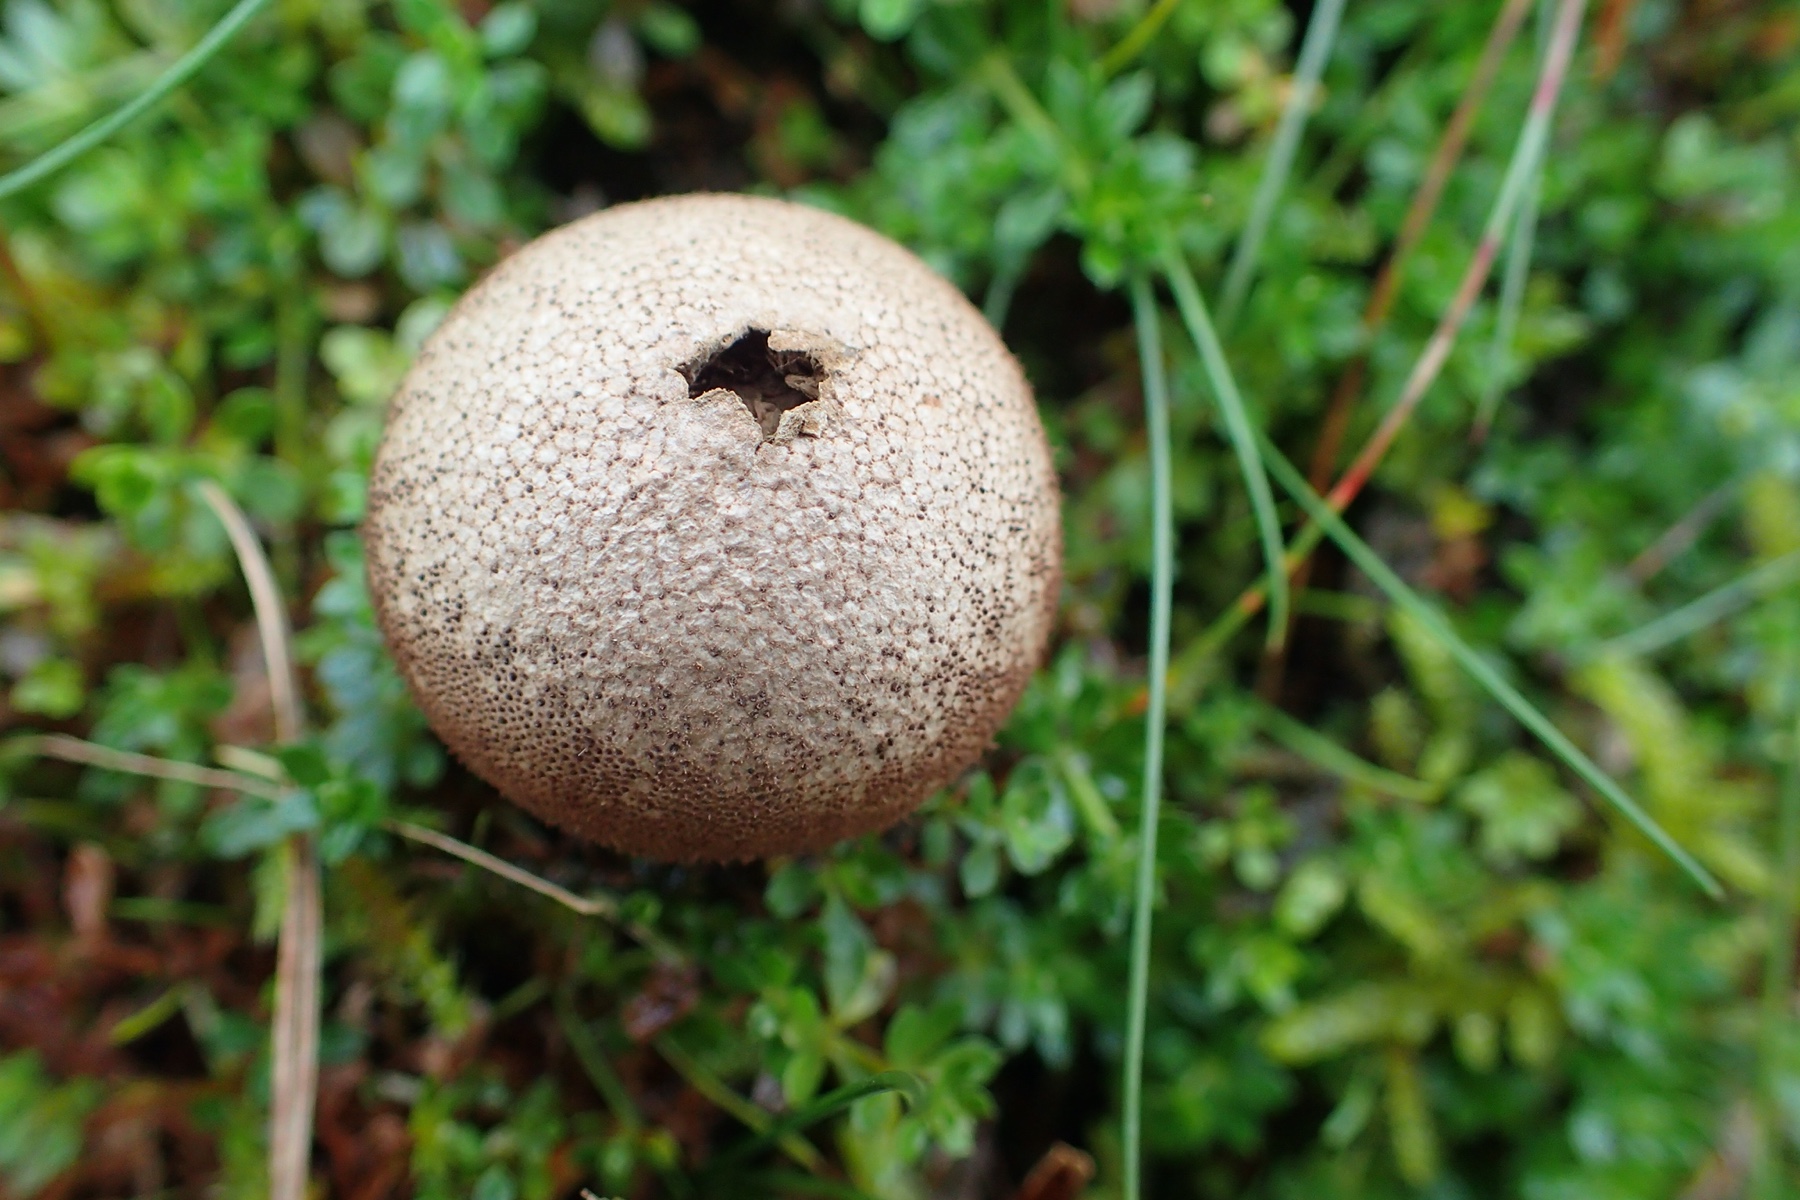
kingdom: Fungi
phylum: Basidiomycota
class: Agaricomycetes
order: Agaricales
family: Lycoperdaceae
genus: Lycoperdon
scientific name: Lycoperdon nigrescens
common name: sortagtig støvbold
